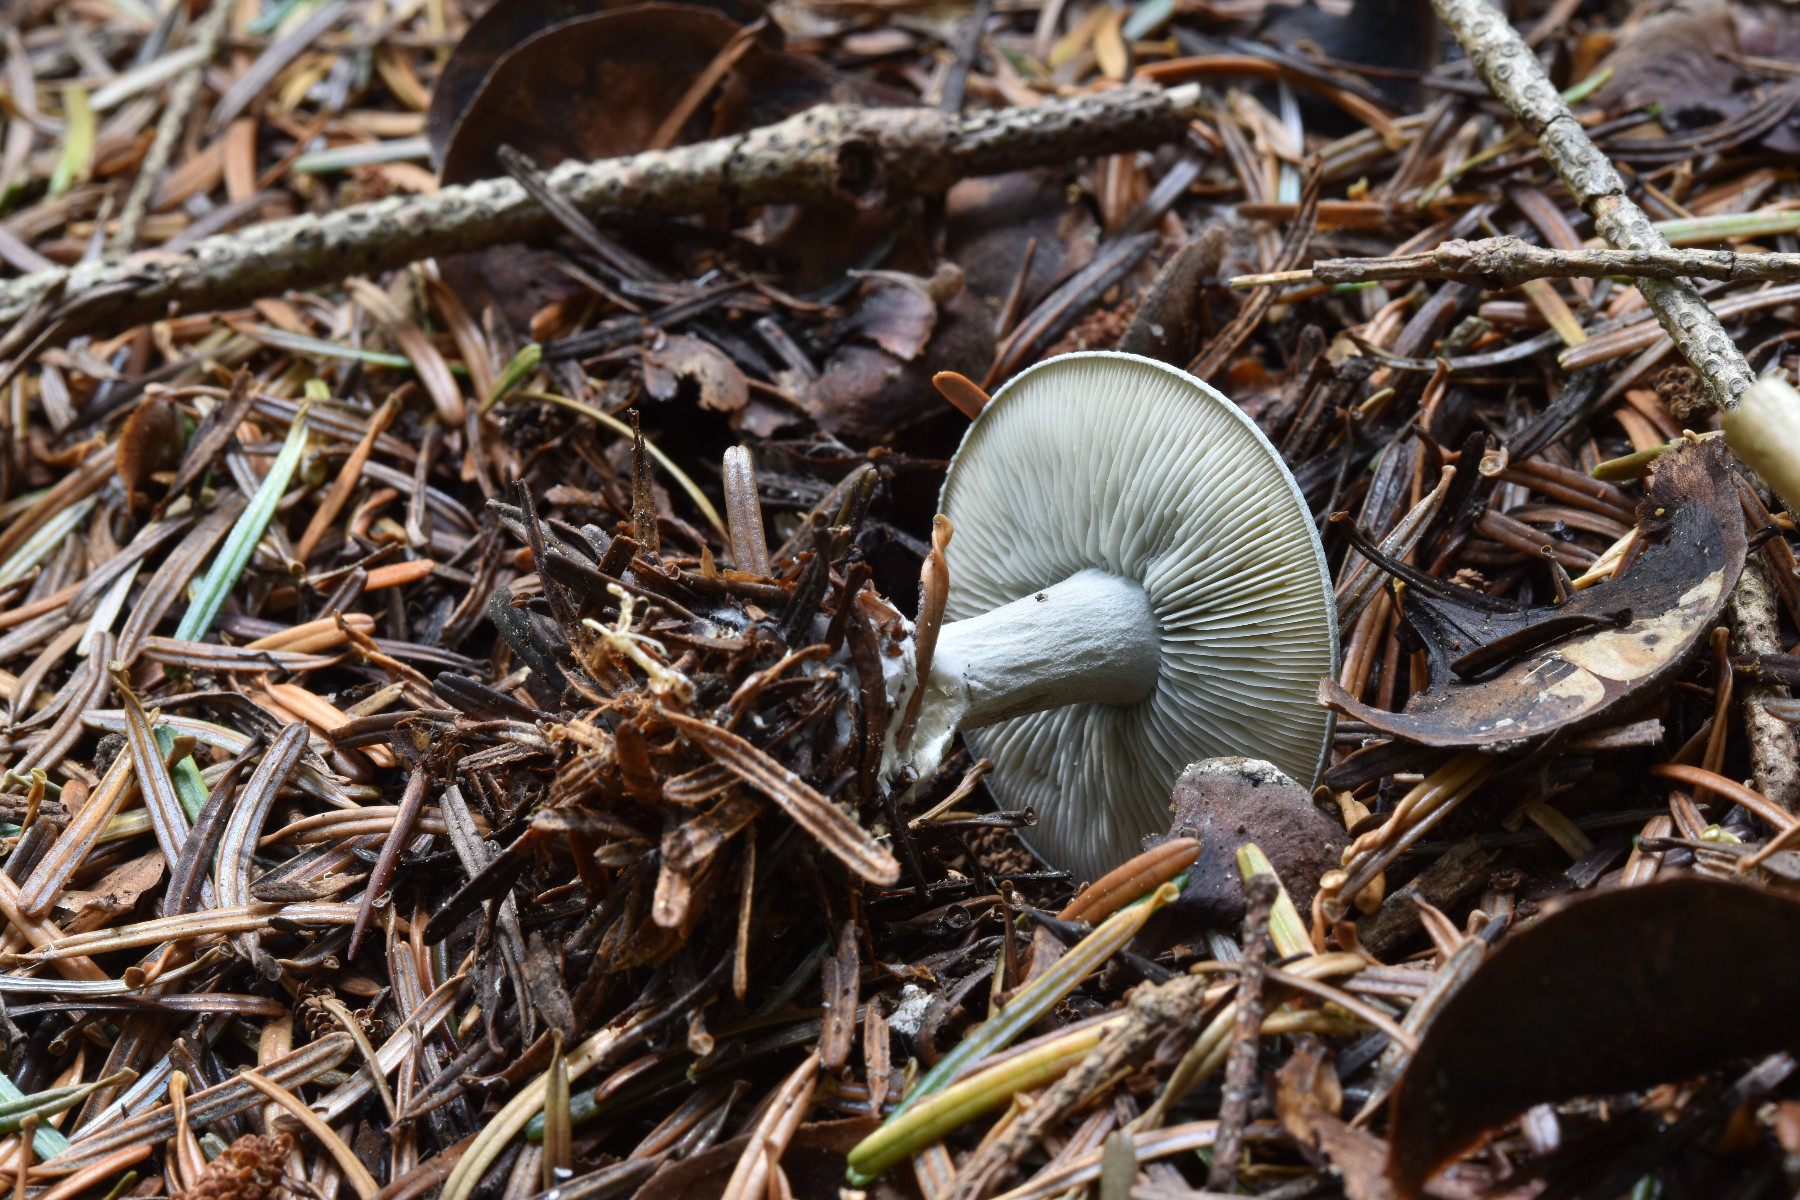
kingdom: Fungi
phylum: Basidiomycota
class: Agaricomycetes
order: Agaricales
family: Tricholomataceae
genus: Clitocybe
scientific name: Clitocybe odora
